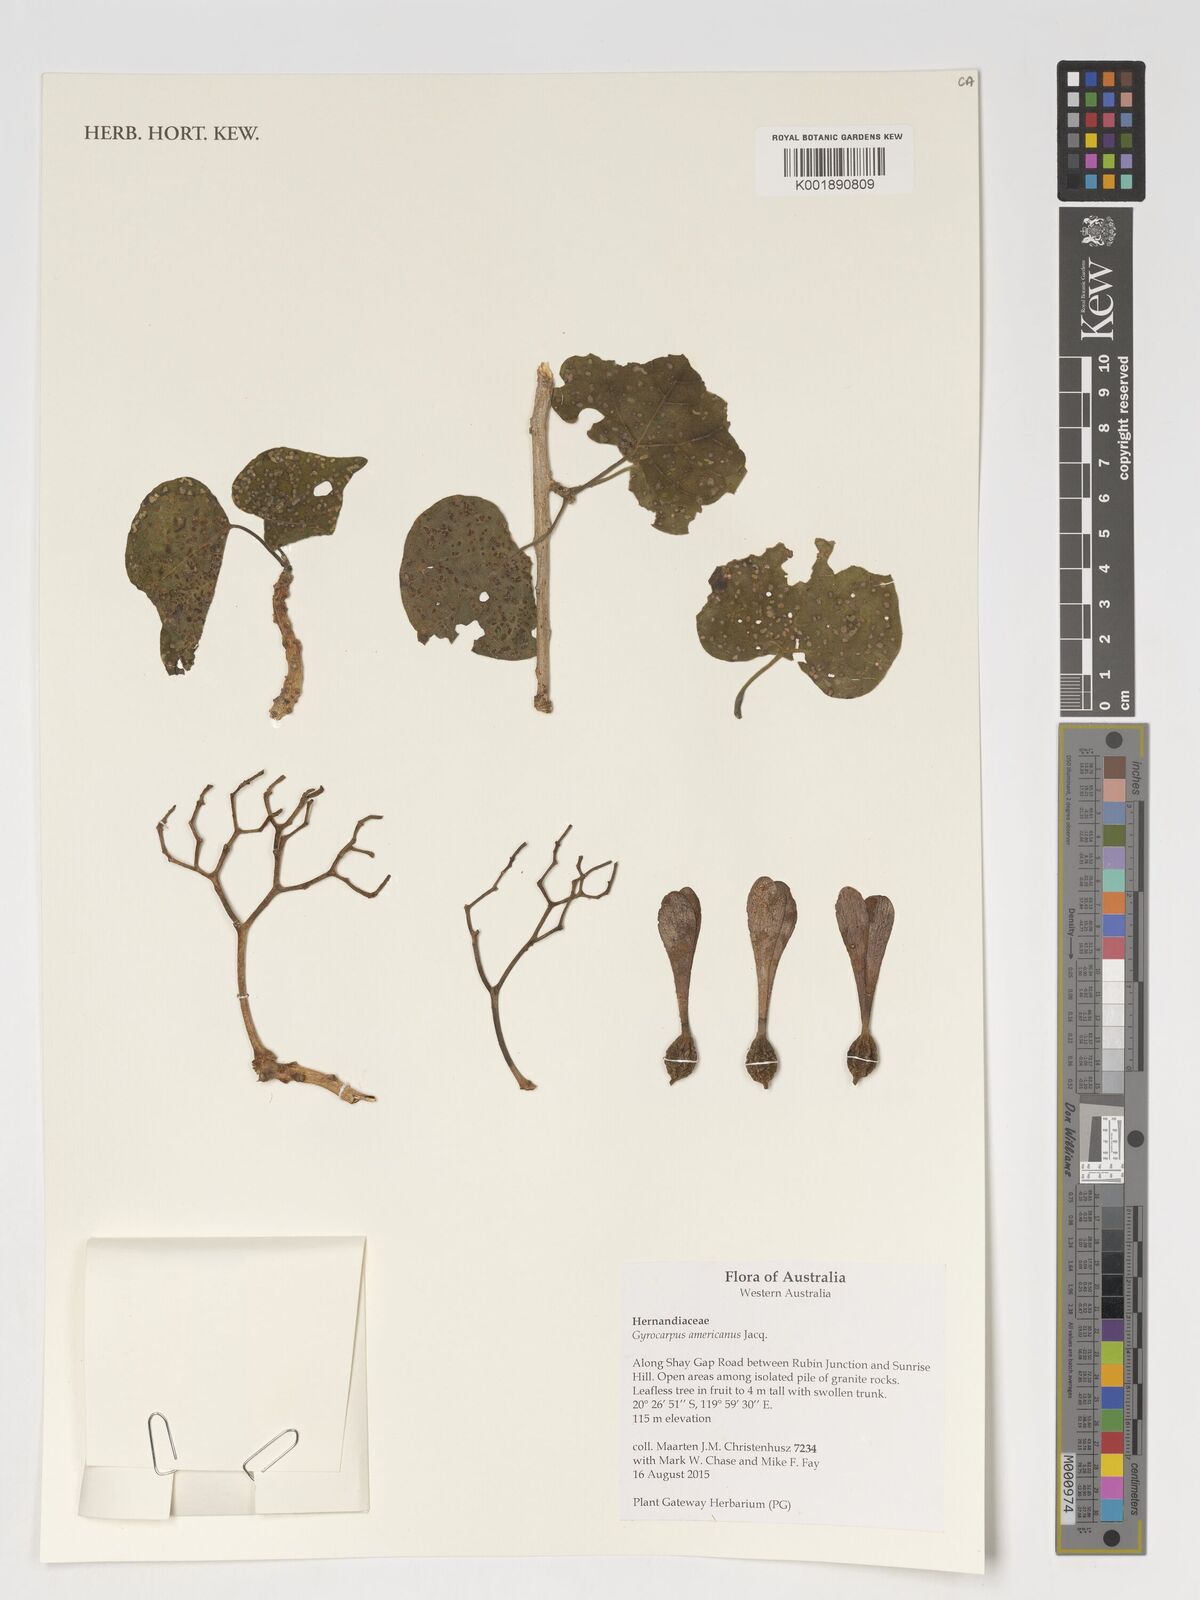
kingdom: Plantae
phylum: Tracheophyta
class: Magnoliopsida
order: Laurales
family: Hernandiaceae
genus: Gyrocarpus
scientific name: Gyrocarpus americanus
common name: Gyro damson
